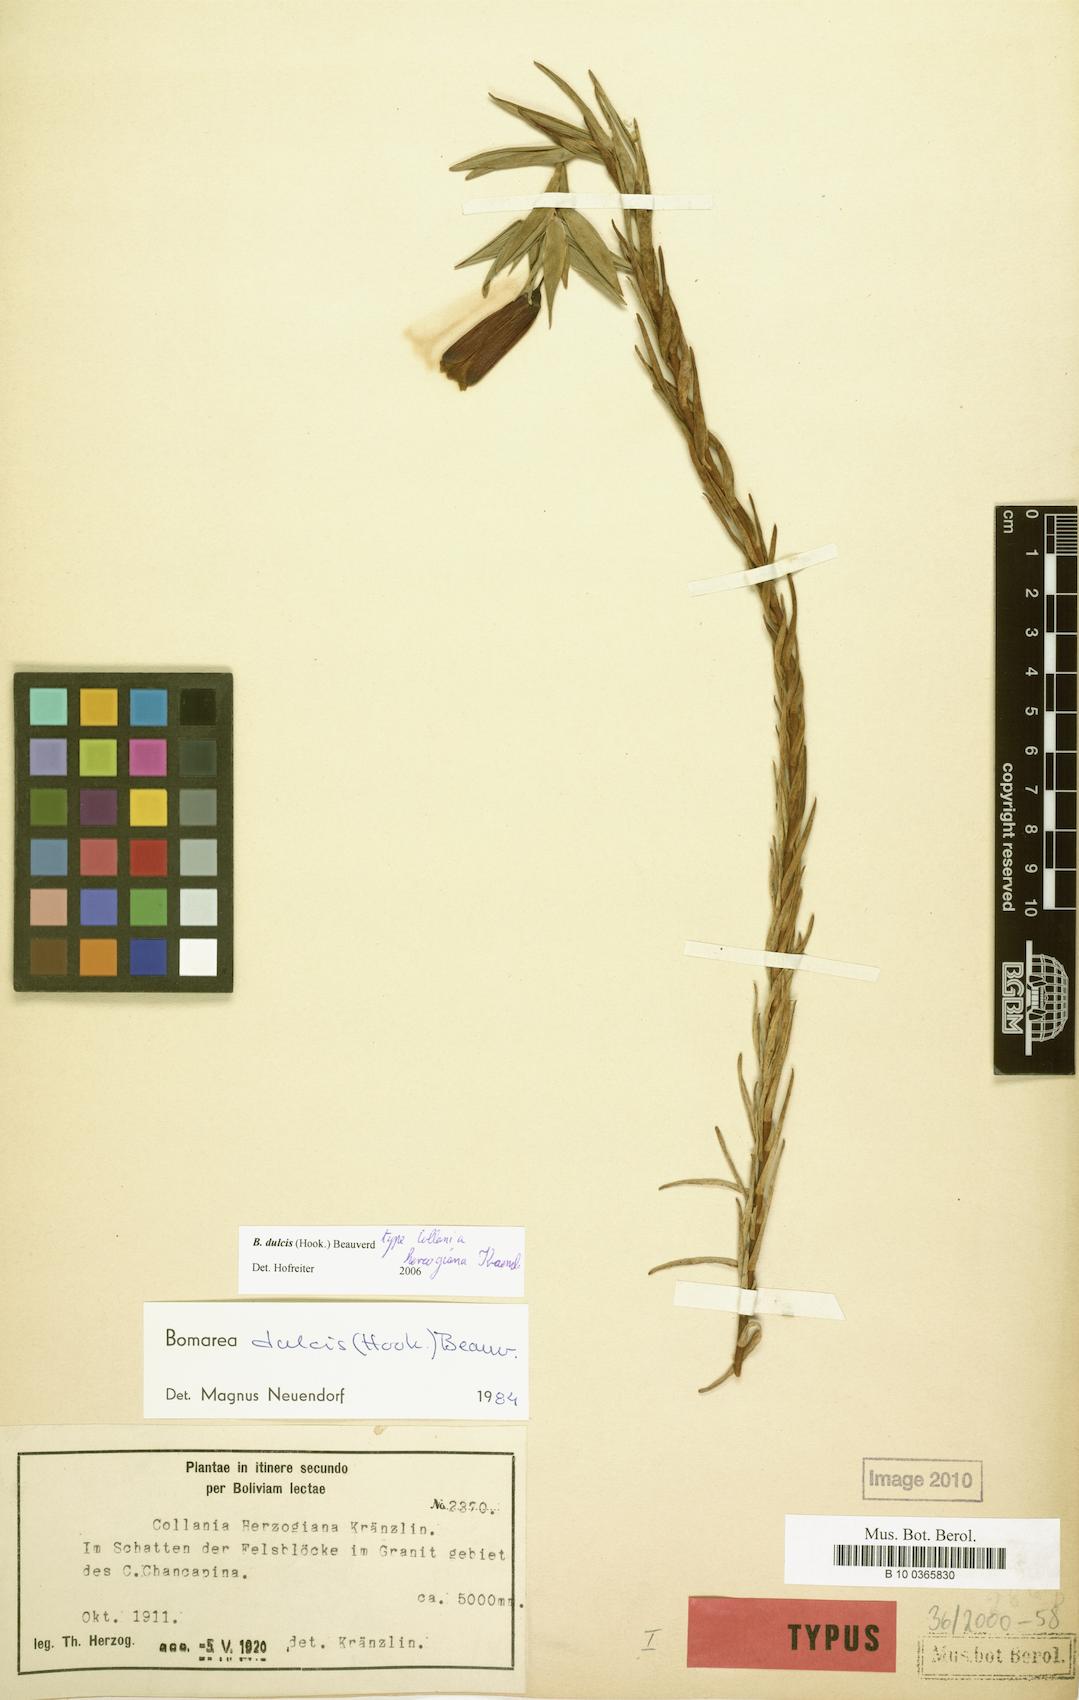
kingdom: Plantae
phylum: Tracheophyta
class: Liliopsida
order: Liliales
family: Alstroemeriaceae
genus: Bomarea
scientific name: Bomarea dulcis
